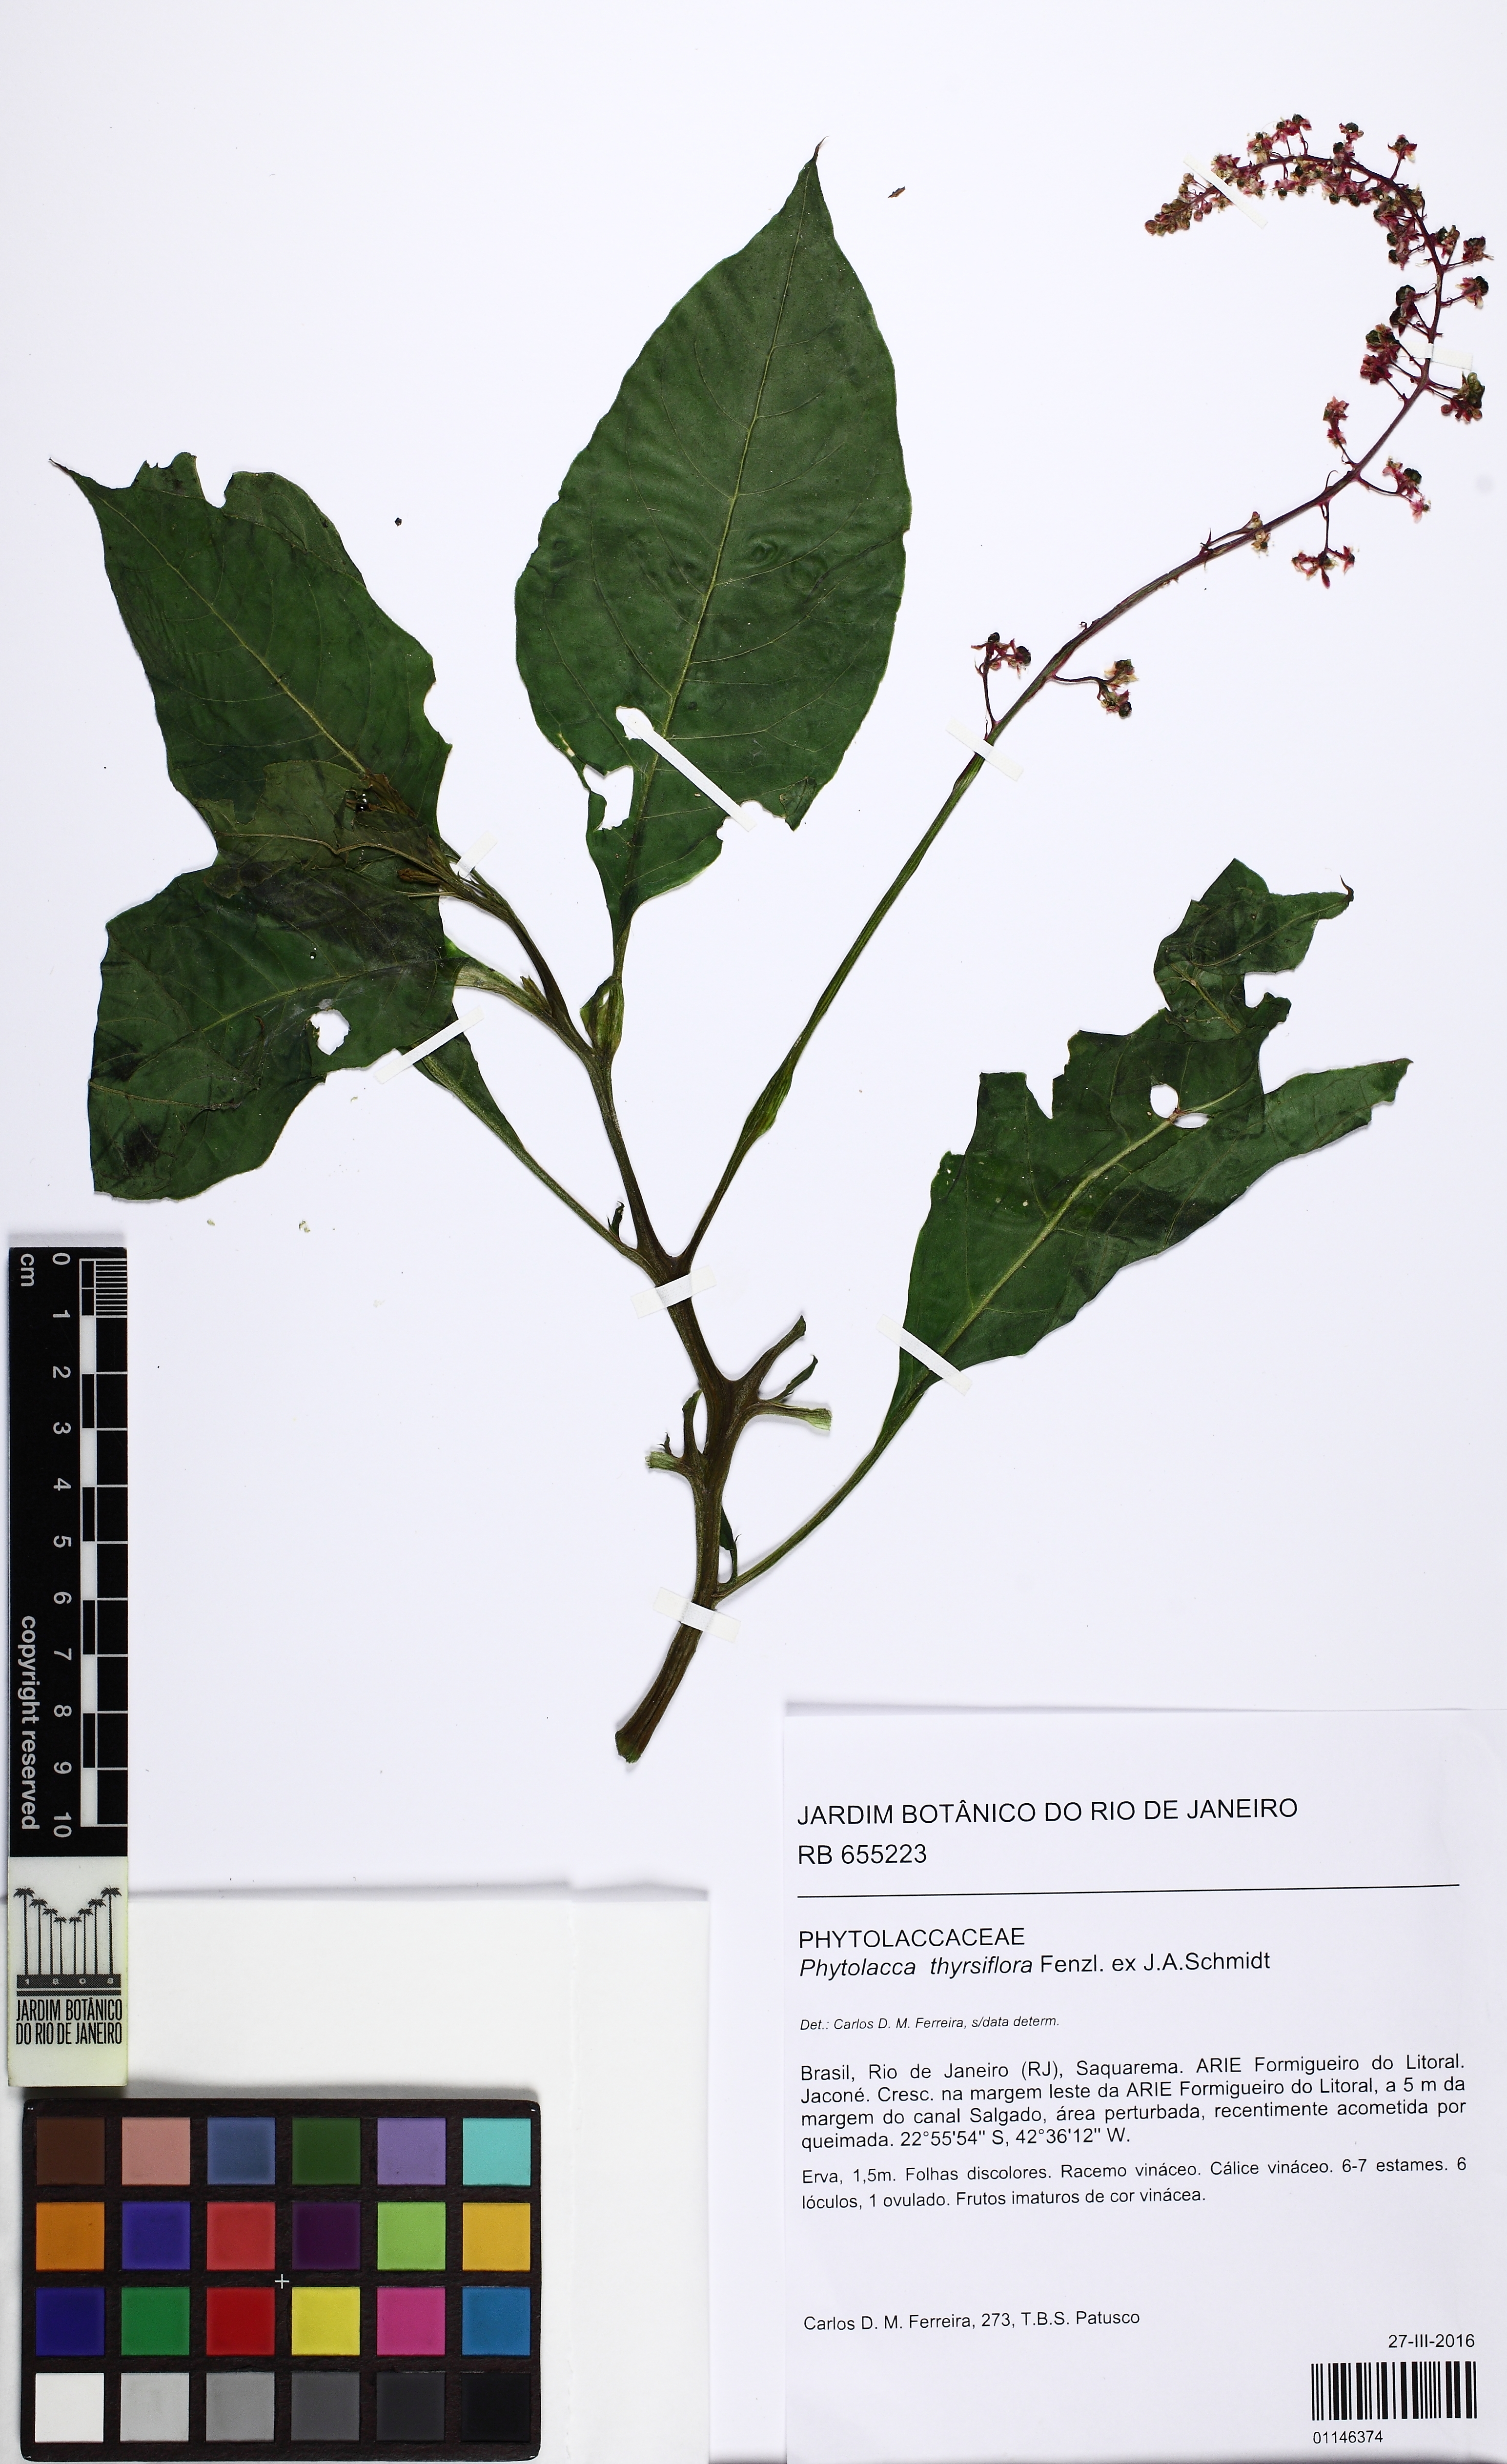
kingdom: Plantae
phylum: Tracheophyta
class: Magnoliopsida
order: Caryophyllales
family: Phytolaccaceae
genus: Phytolacca
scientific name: Phytolacca thyrsiflora
